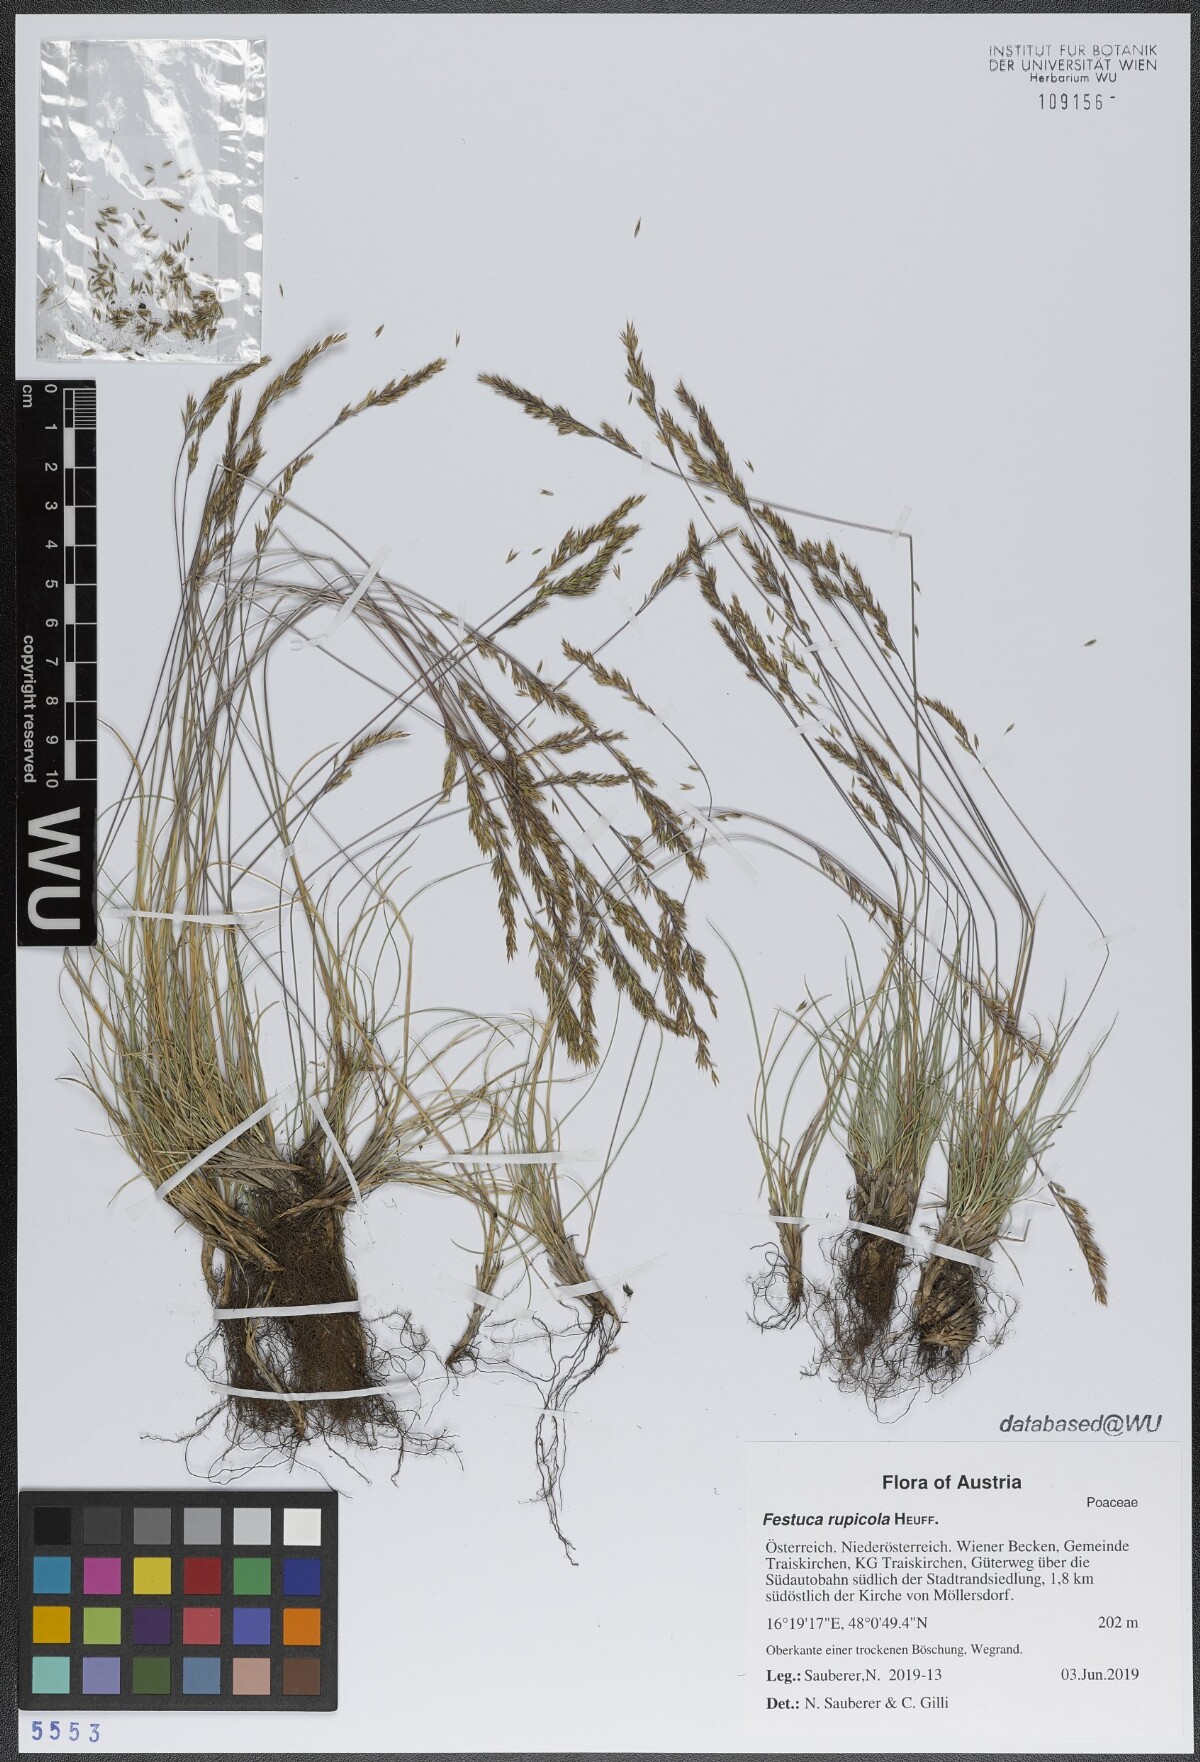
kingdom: Plantae
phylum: Tracheophyta
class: Liliopsida
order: Poales
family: Poaceae
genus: Festuca
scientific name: Festuca rupicola
